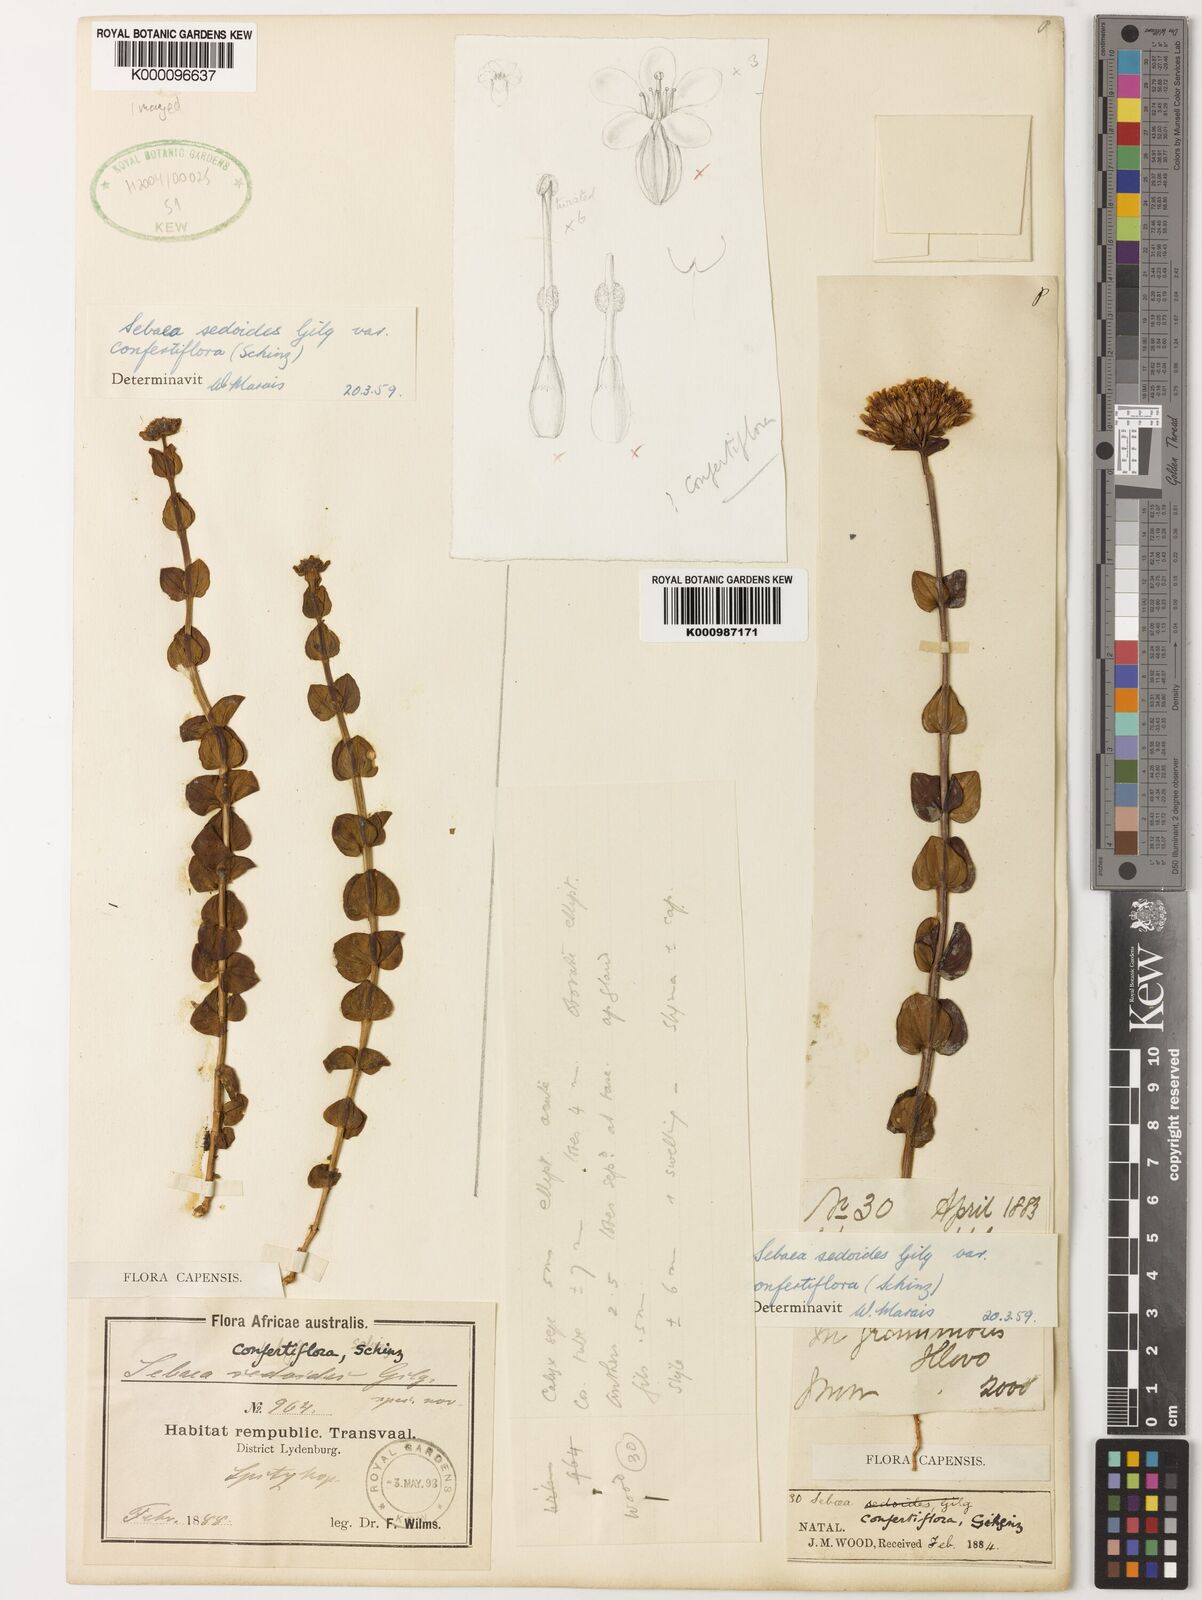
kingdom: Plantae
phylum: Tracheophyta
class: Magnoliopsida
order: Gentianales
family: Gentianaceae
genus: Sebaea
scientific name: Sebaea sedoides
